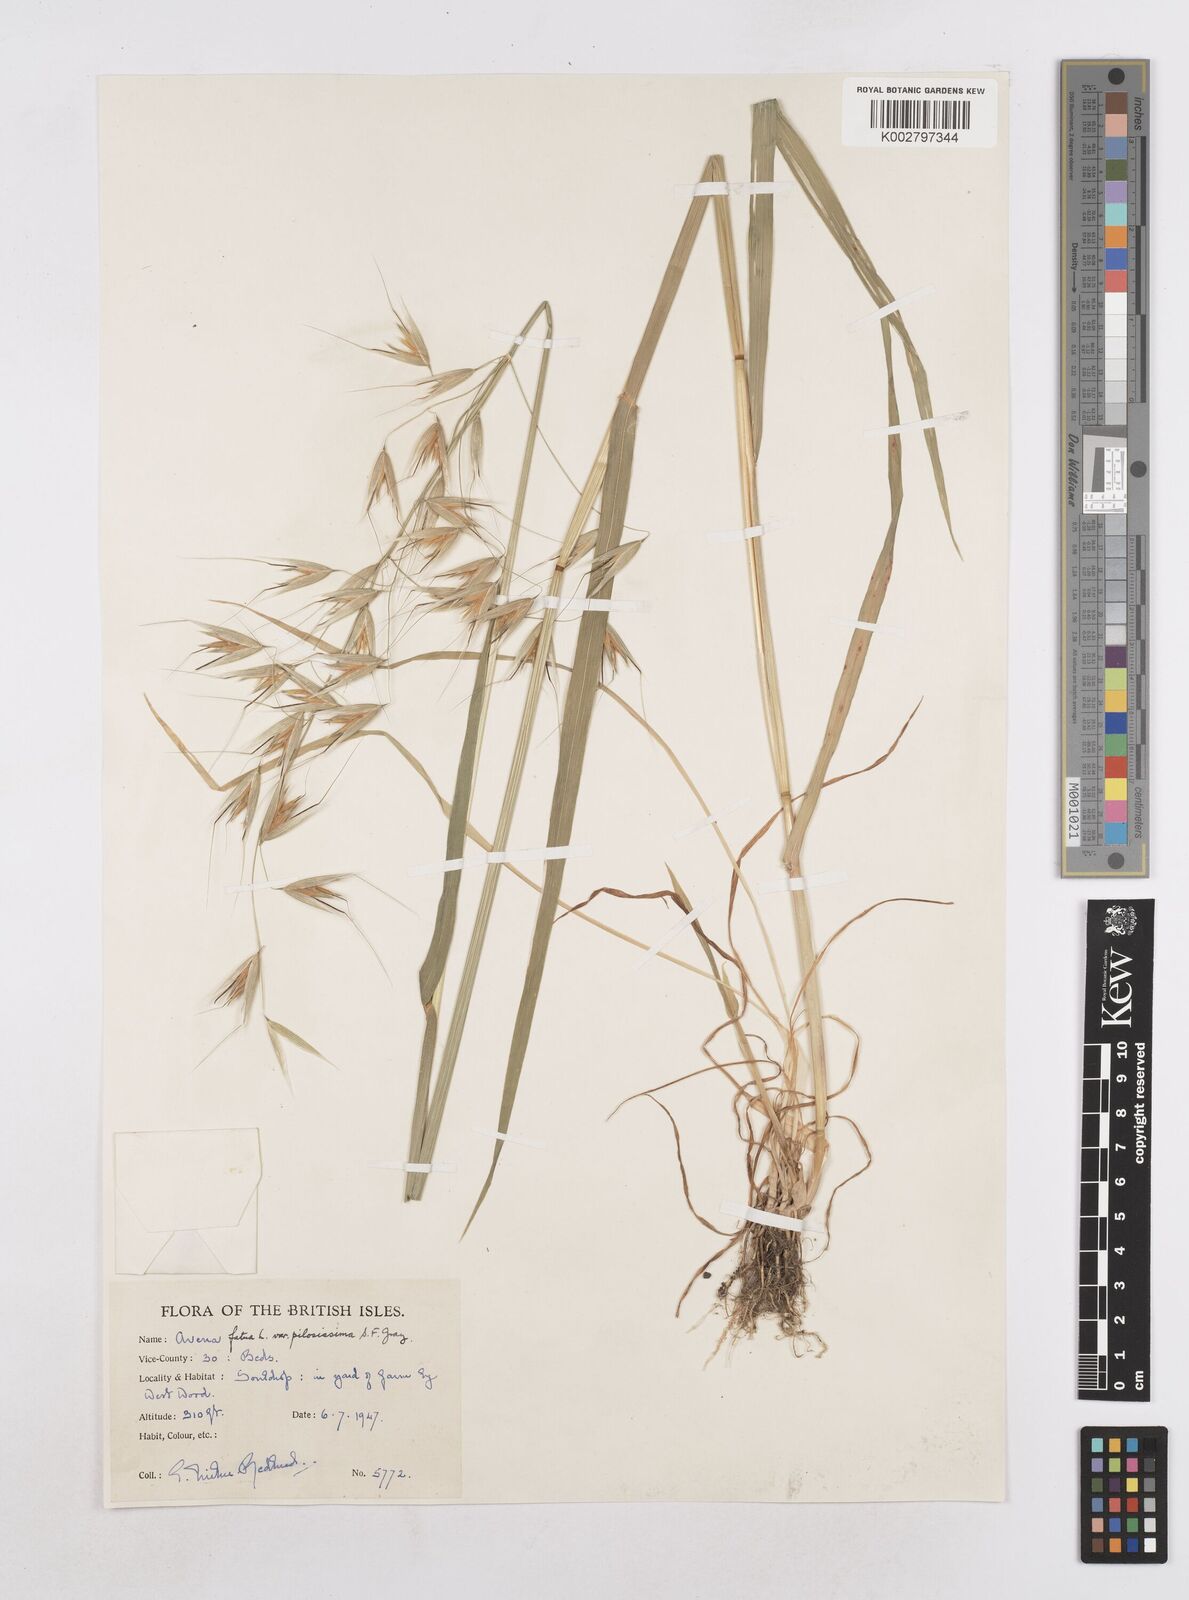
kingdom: Plantae
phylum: Tracheophyta
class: Liliopsida
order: Poales
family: Poaceae
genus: Avena
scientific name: Avena fatua
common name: Wild oat
